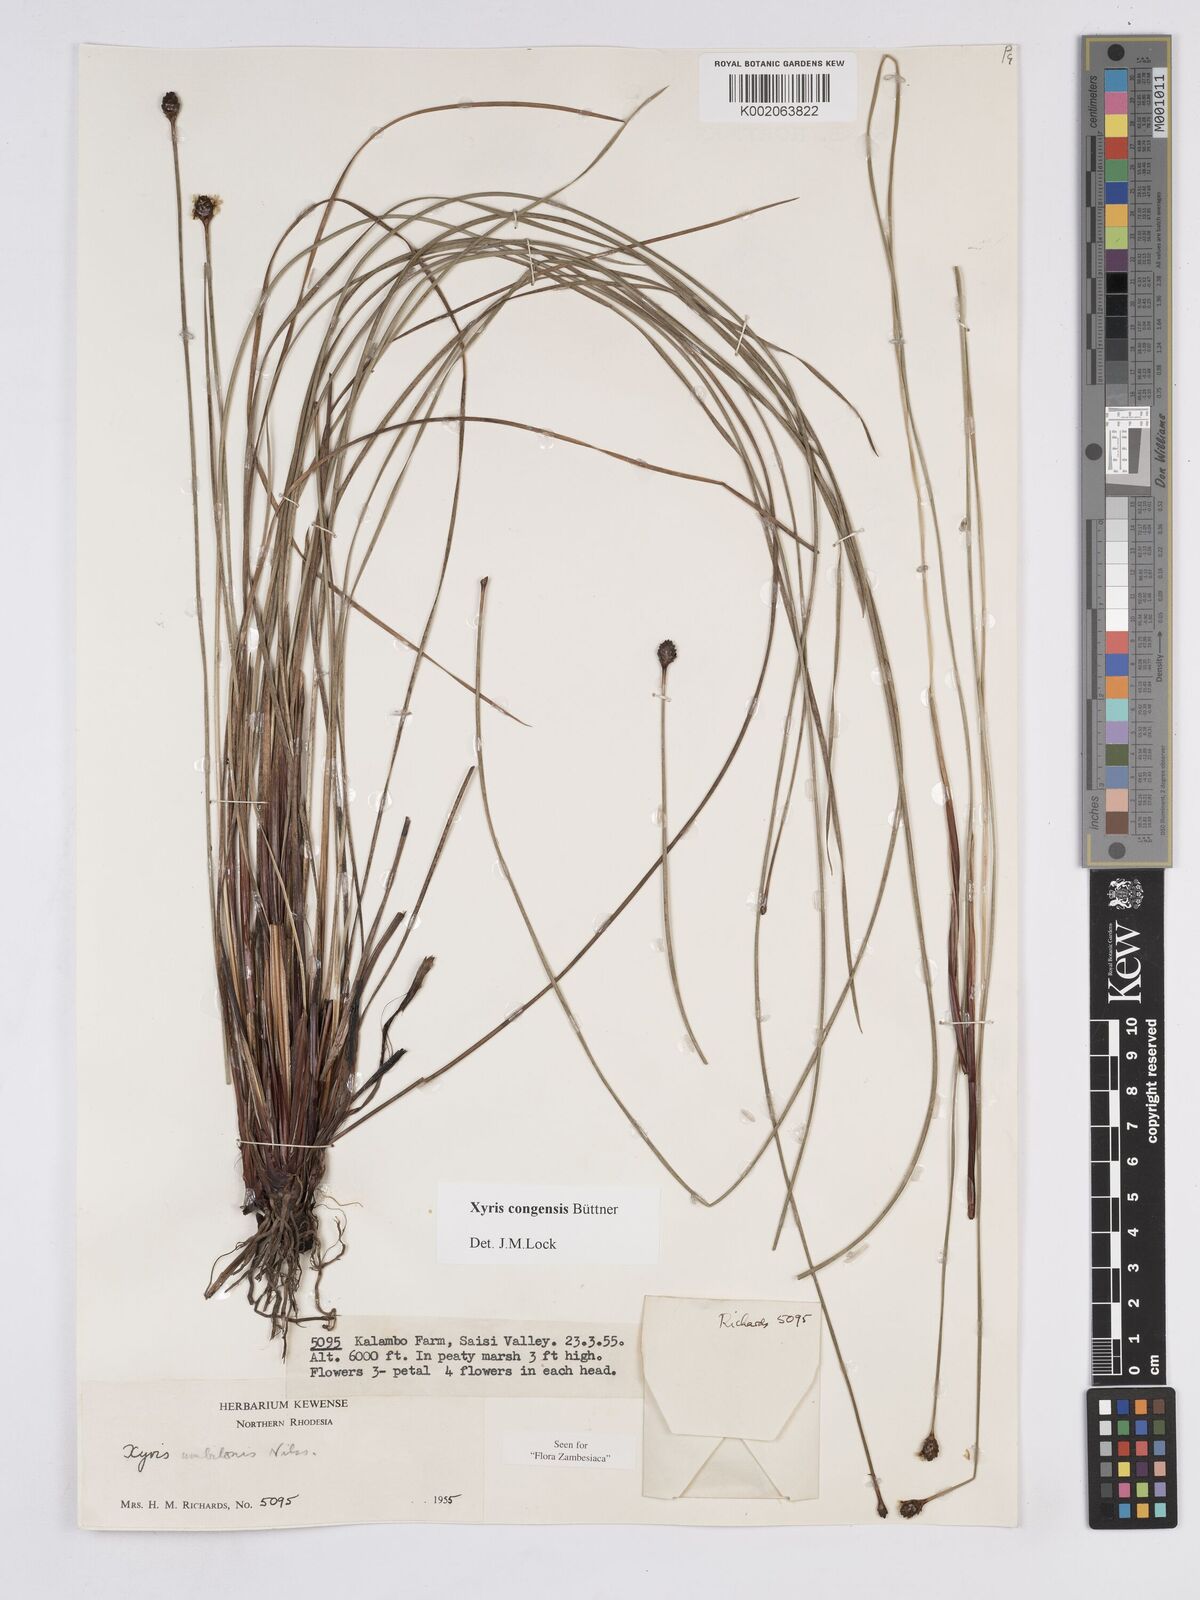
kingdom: Plantae
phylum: Tracheophyta
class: Liliopsida
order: Poales
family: Xyridaceae
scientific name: Xyridaceae
